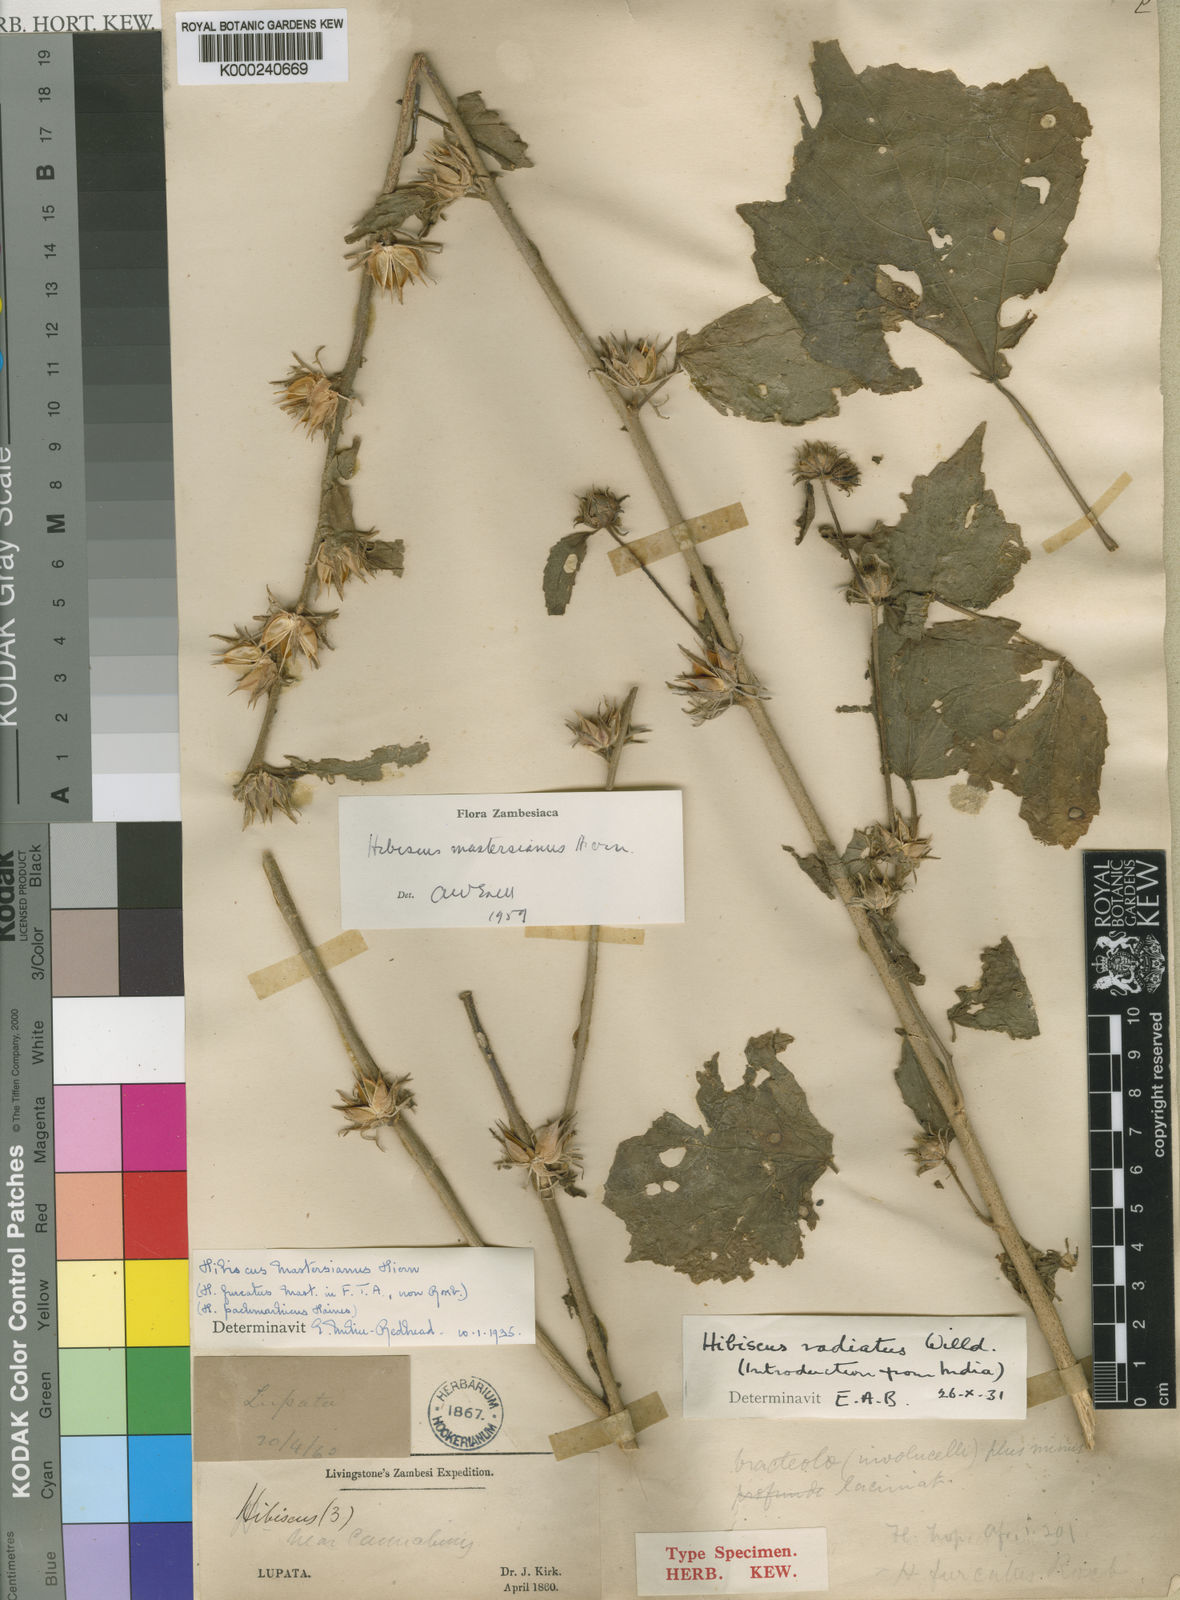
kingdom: Plantae
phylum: Tracheophyta
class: Magnoliopsida
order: Malvales
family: Malvaceae
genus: Hibiscus
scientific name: Hibiscus mastersianus
